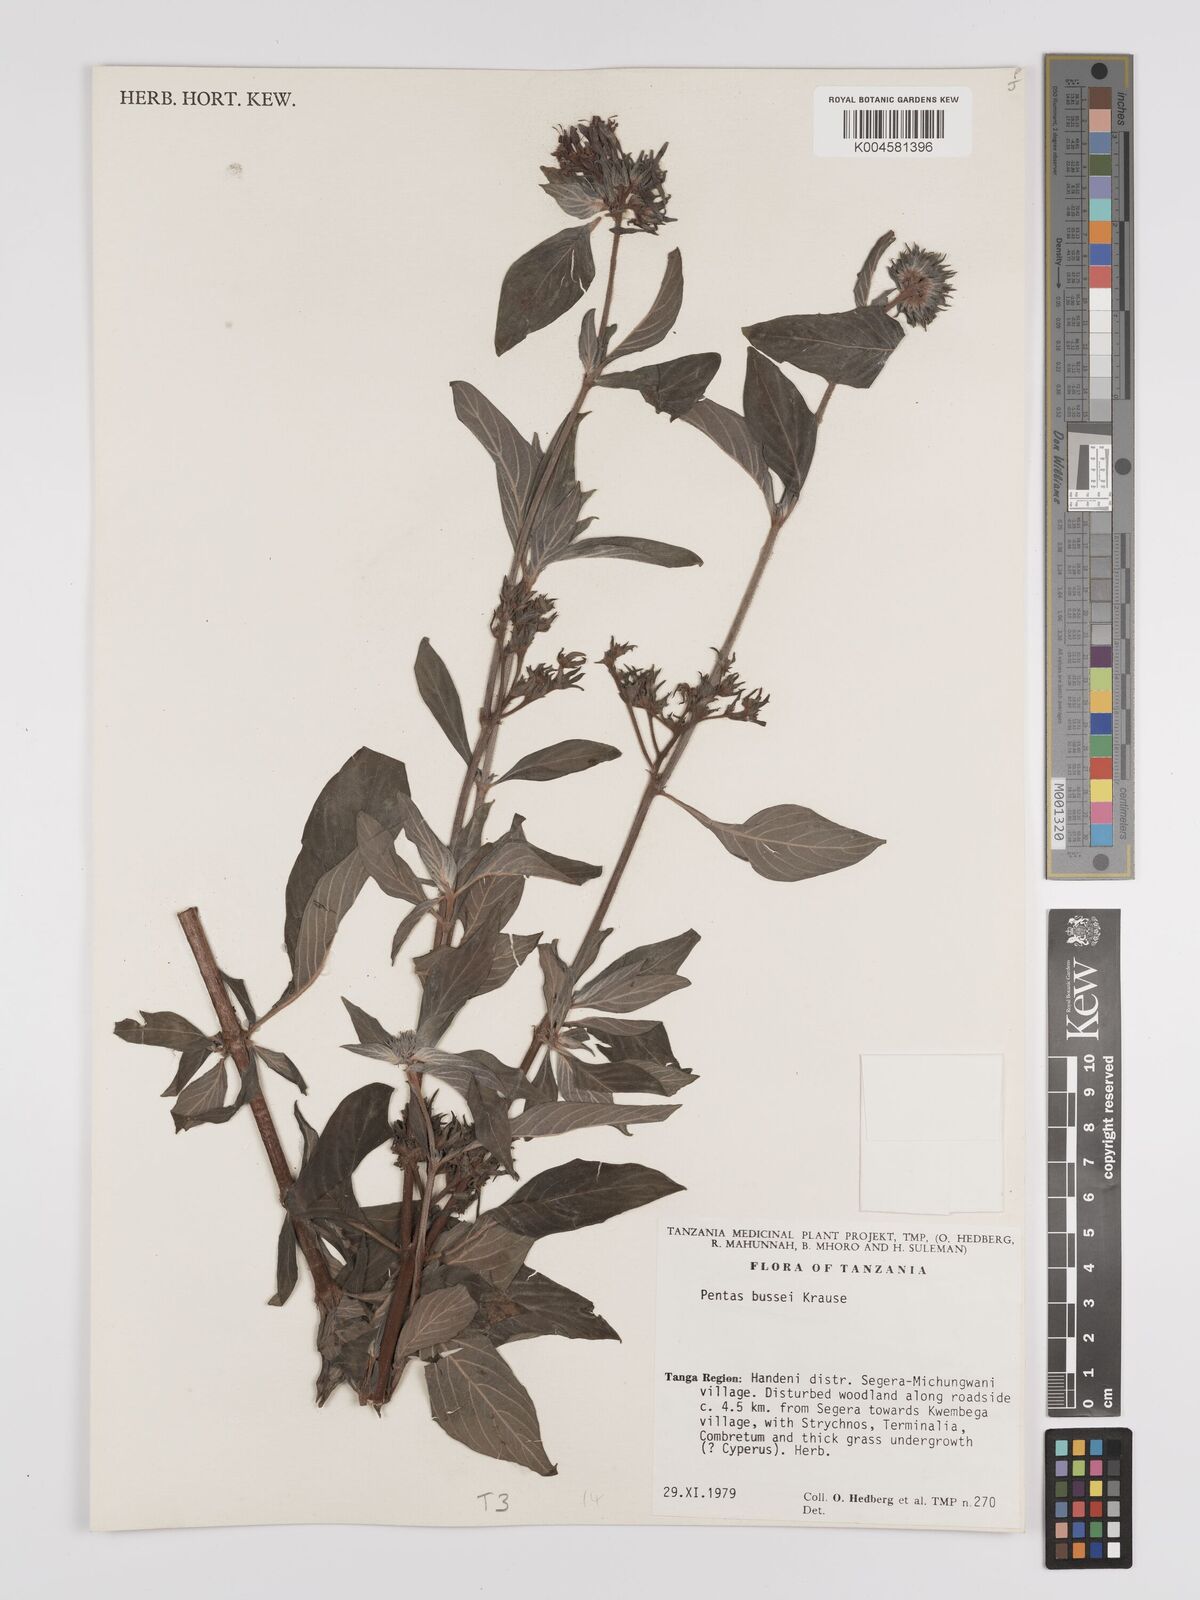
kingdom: Plantae
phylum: Tracheophyta
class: Magnoliopsida
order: Gentianales
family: Rubiaceae
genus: Rhodopentas
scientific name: Rhodopentas bussei
